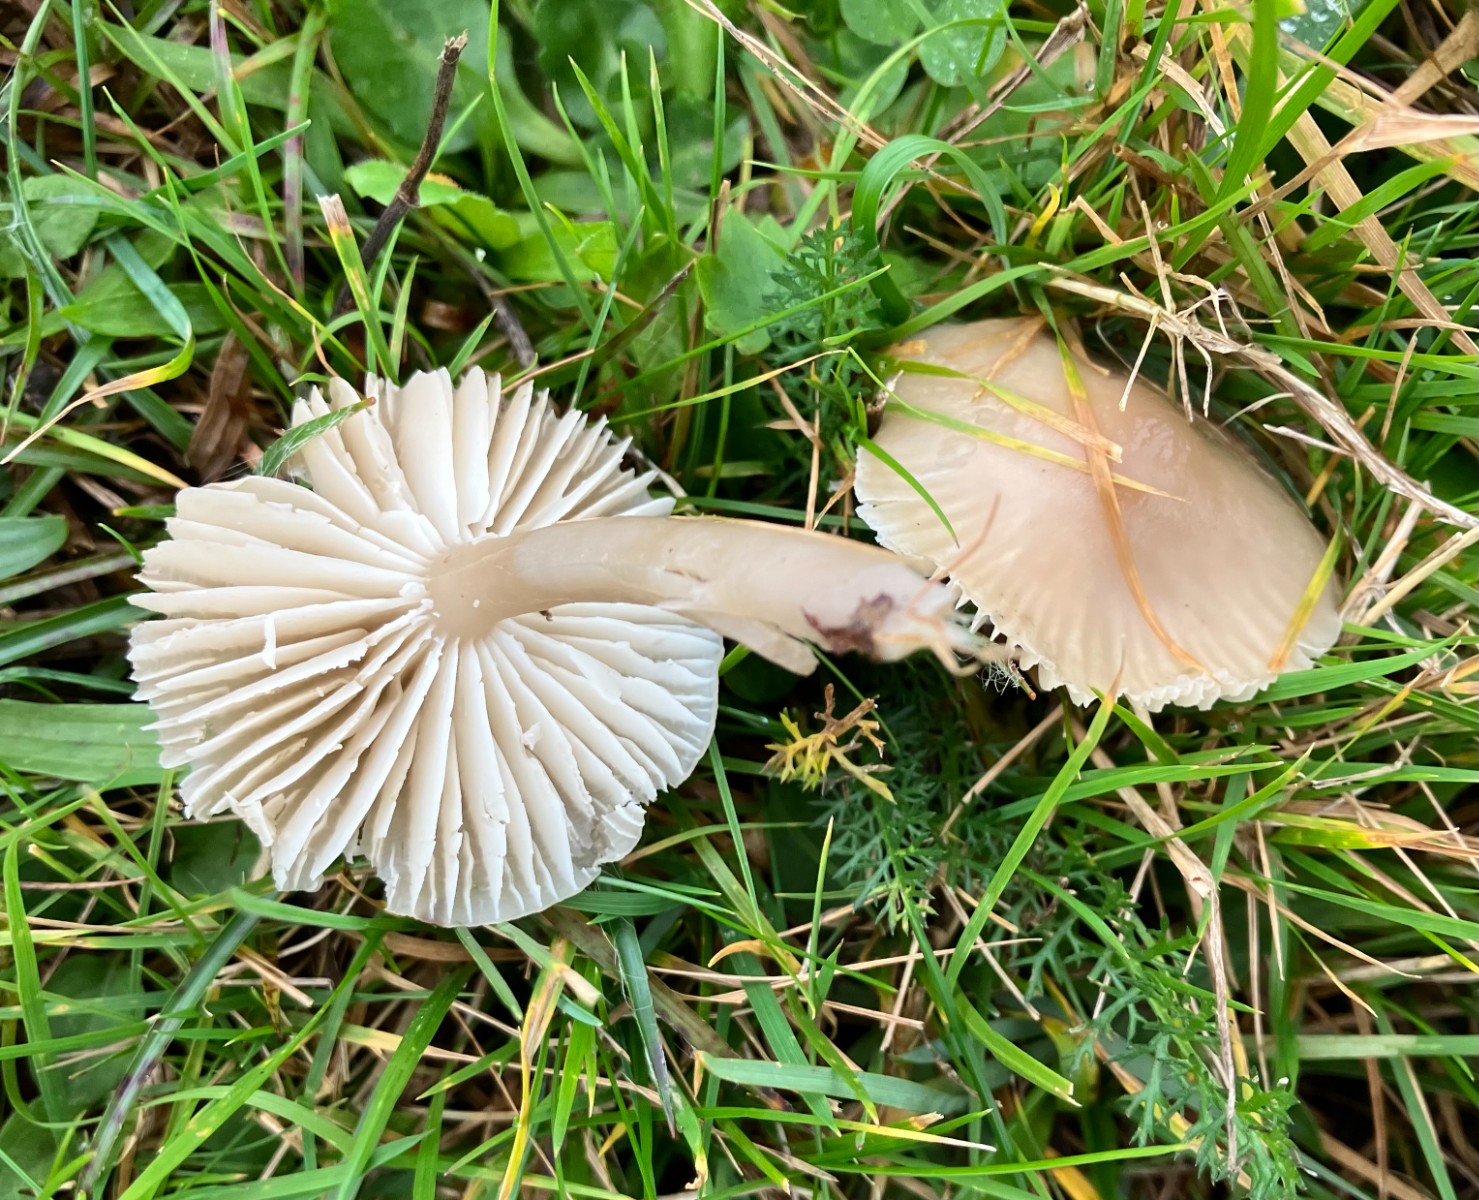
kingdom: Fungi
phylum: Basidiomycota
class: Agaricomycetes
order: Agaricales
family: Hygrophoraceae
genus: Gliophorus
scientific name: Gliophorus irrigatus
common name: slimet vokshat
